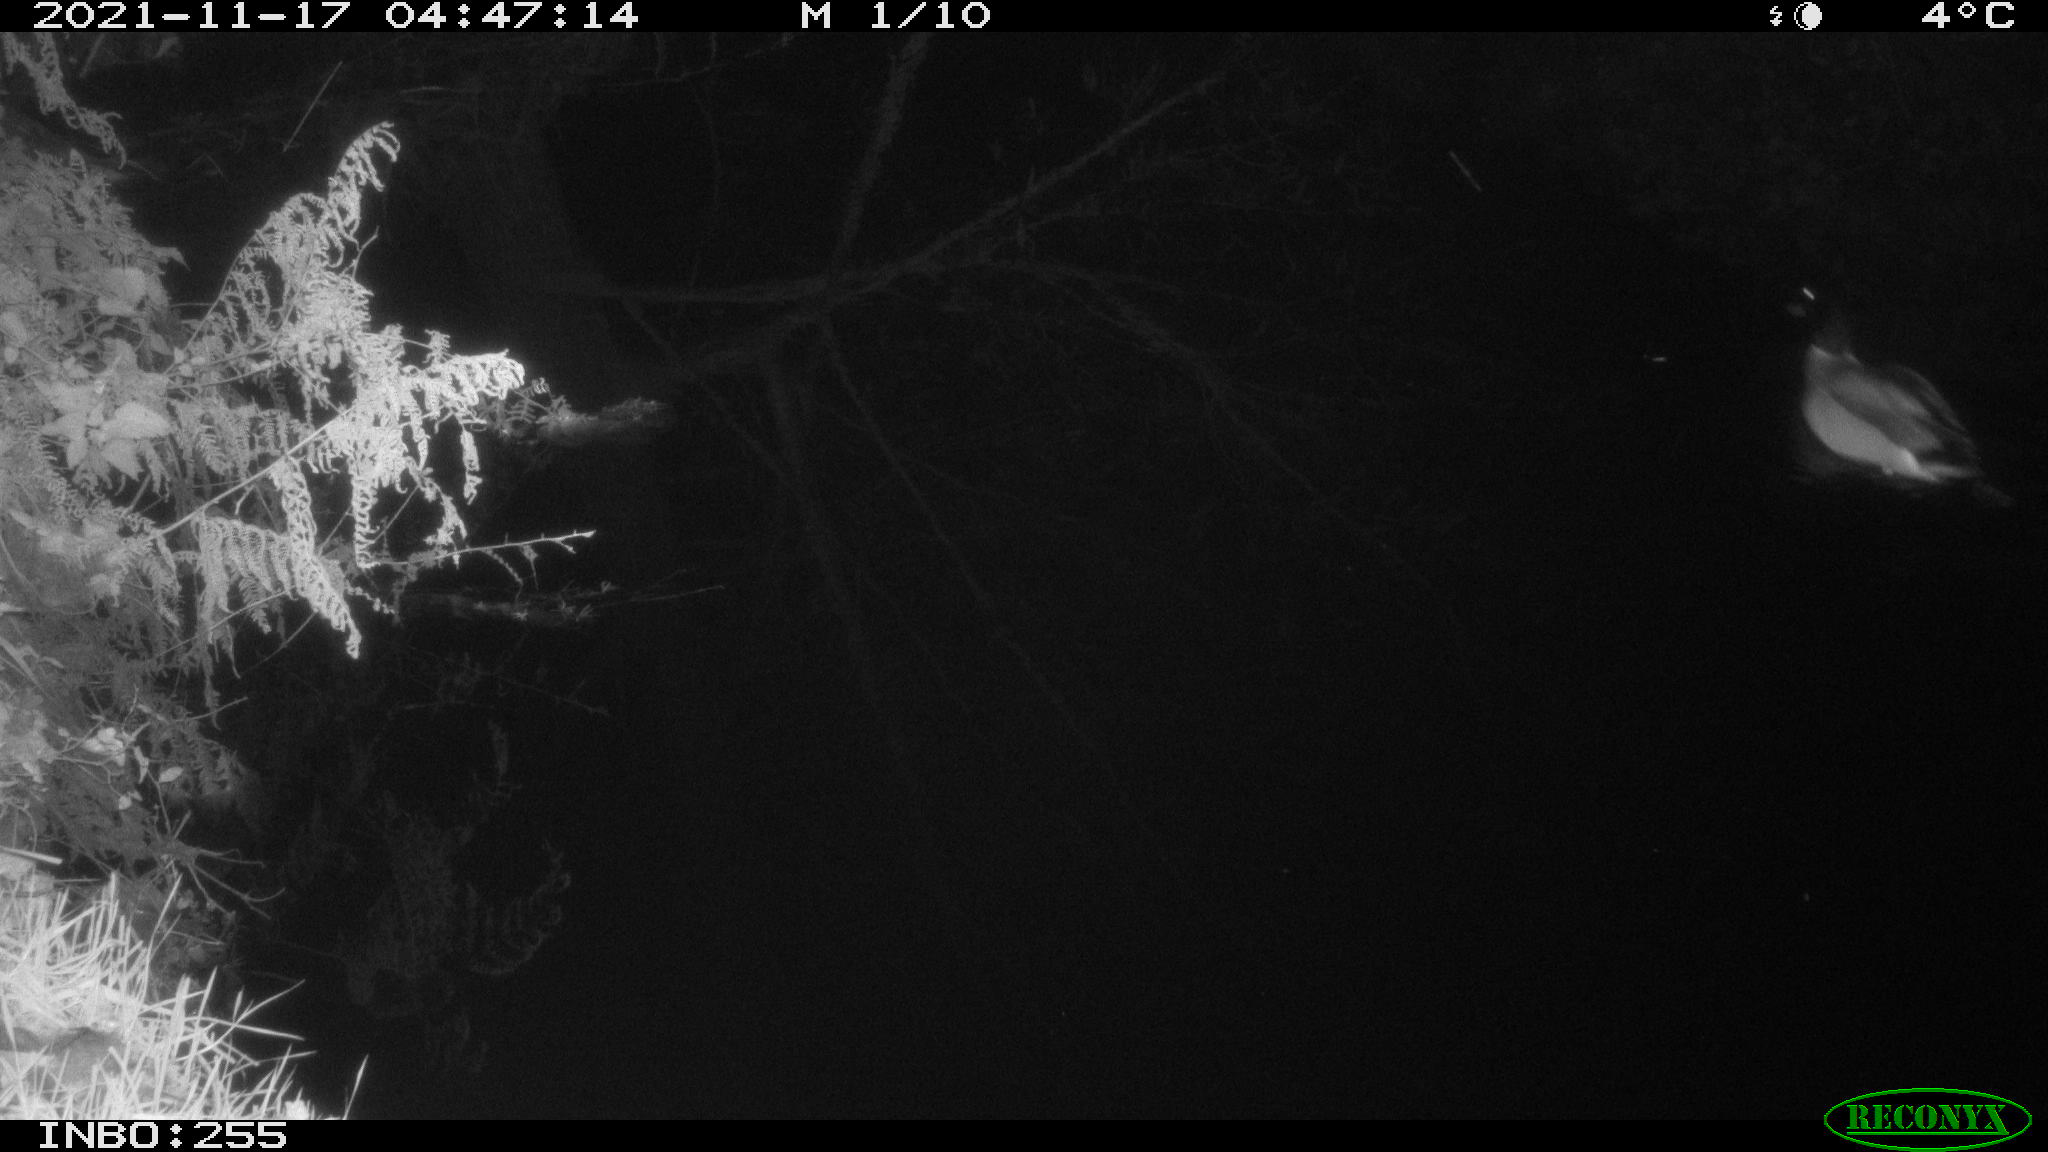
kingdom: Animalia
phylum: Chordata
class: Aves
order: Anseriformes
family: Anatidae
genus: Anas
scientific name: Anas platyrhynchos
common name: Mallard
